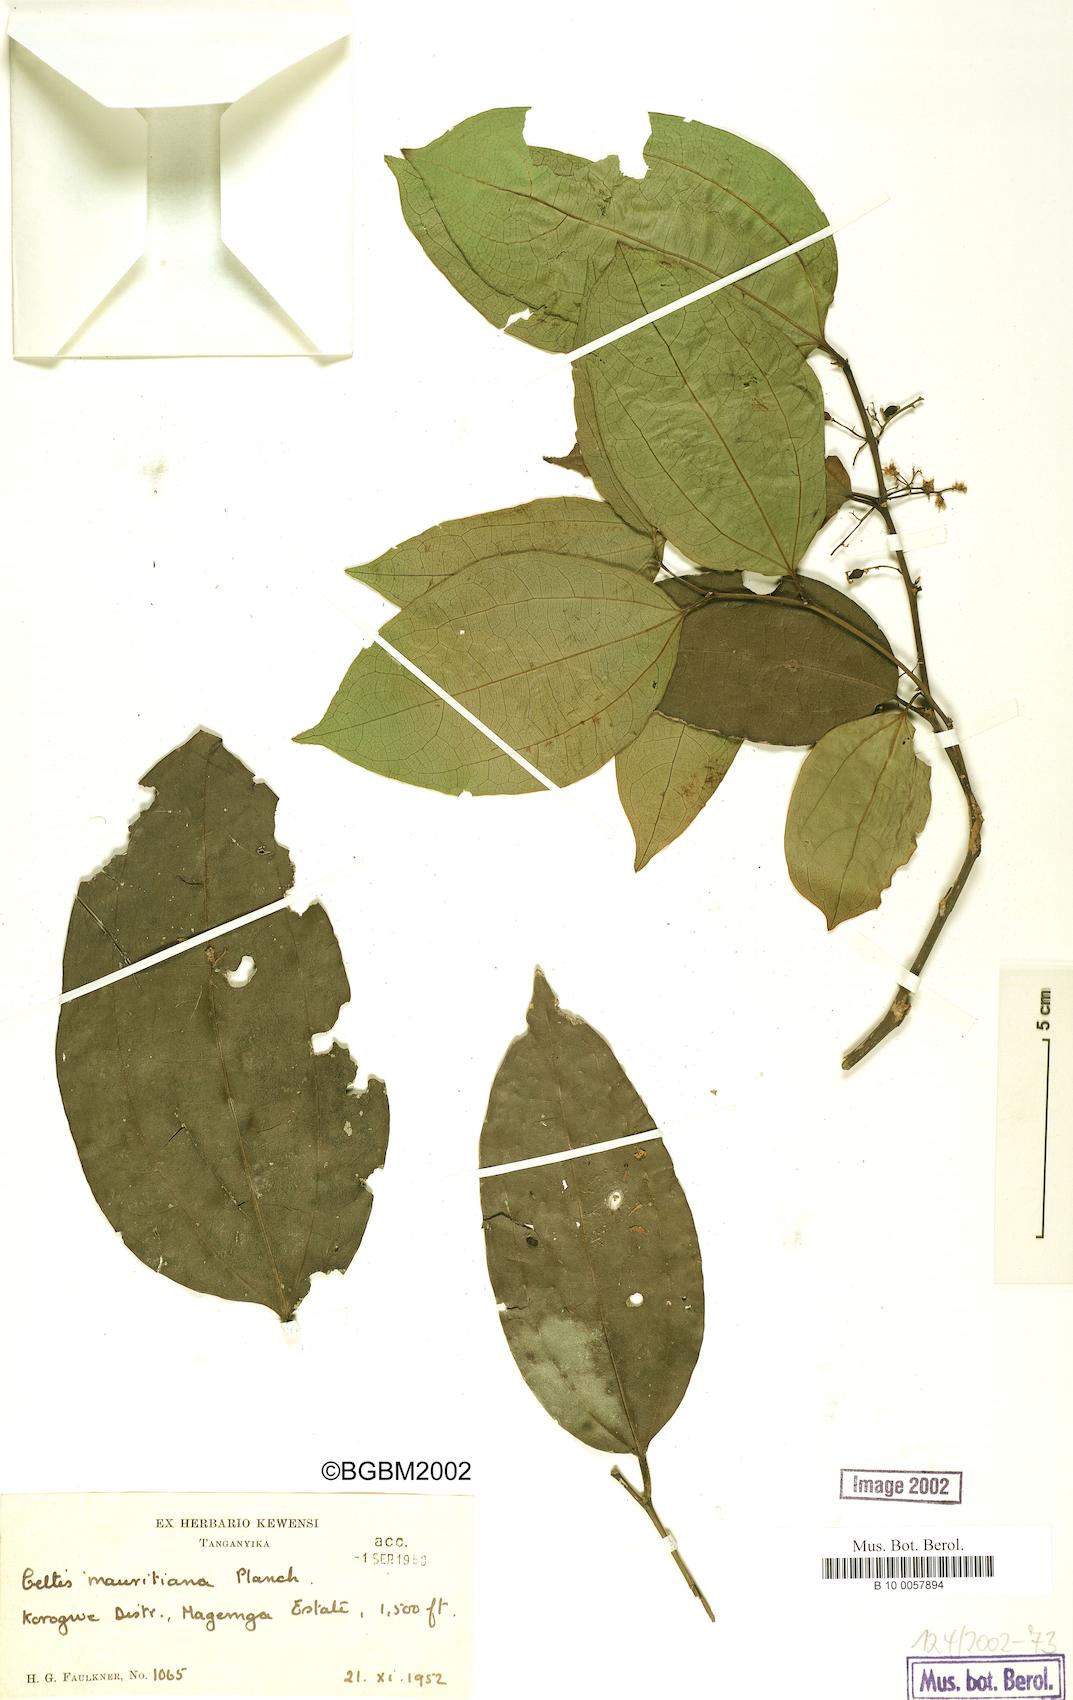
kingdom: Plantae
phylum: Tracheophyta
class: Magnoliopsida
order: Rosales
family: Cannabaceae
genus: Celtis
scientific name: Celtis philippensis
